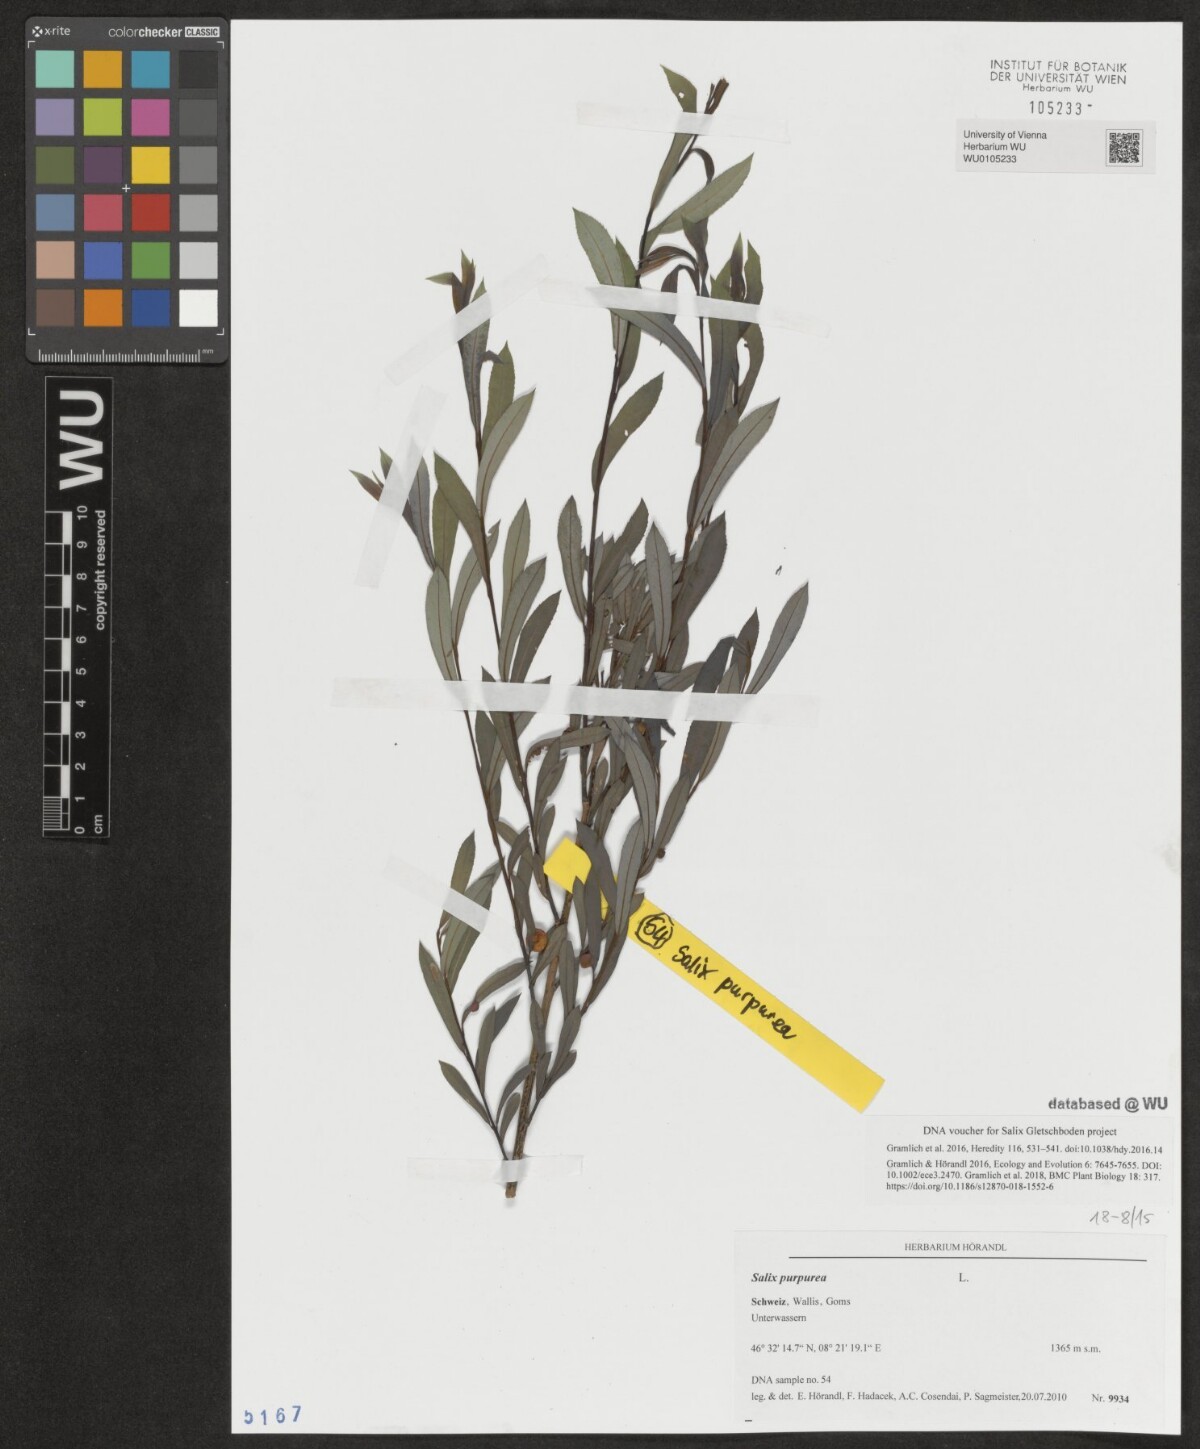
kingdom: Plantae
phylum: Tracheophyta
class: Magnoliopsida
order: Malpighiales
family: Salicaceae
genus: Salix
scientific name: Salix purpurea
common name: Purple willow
